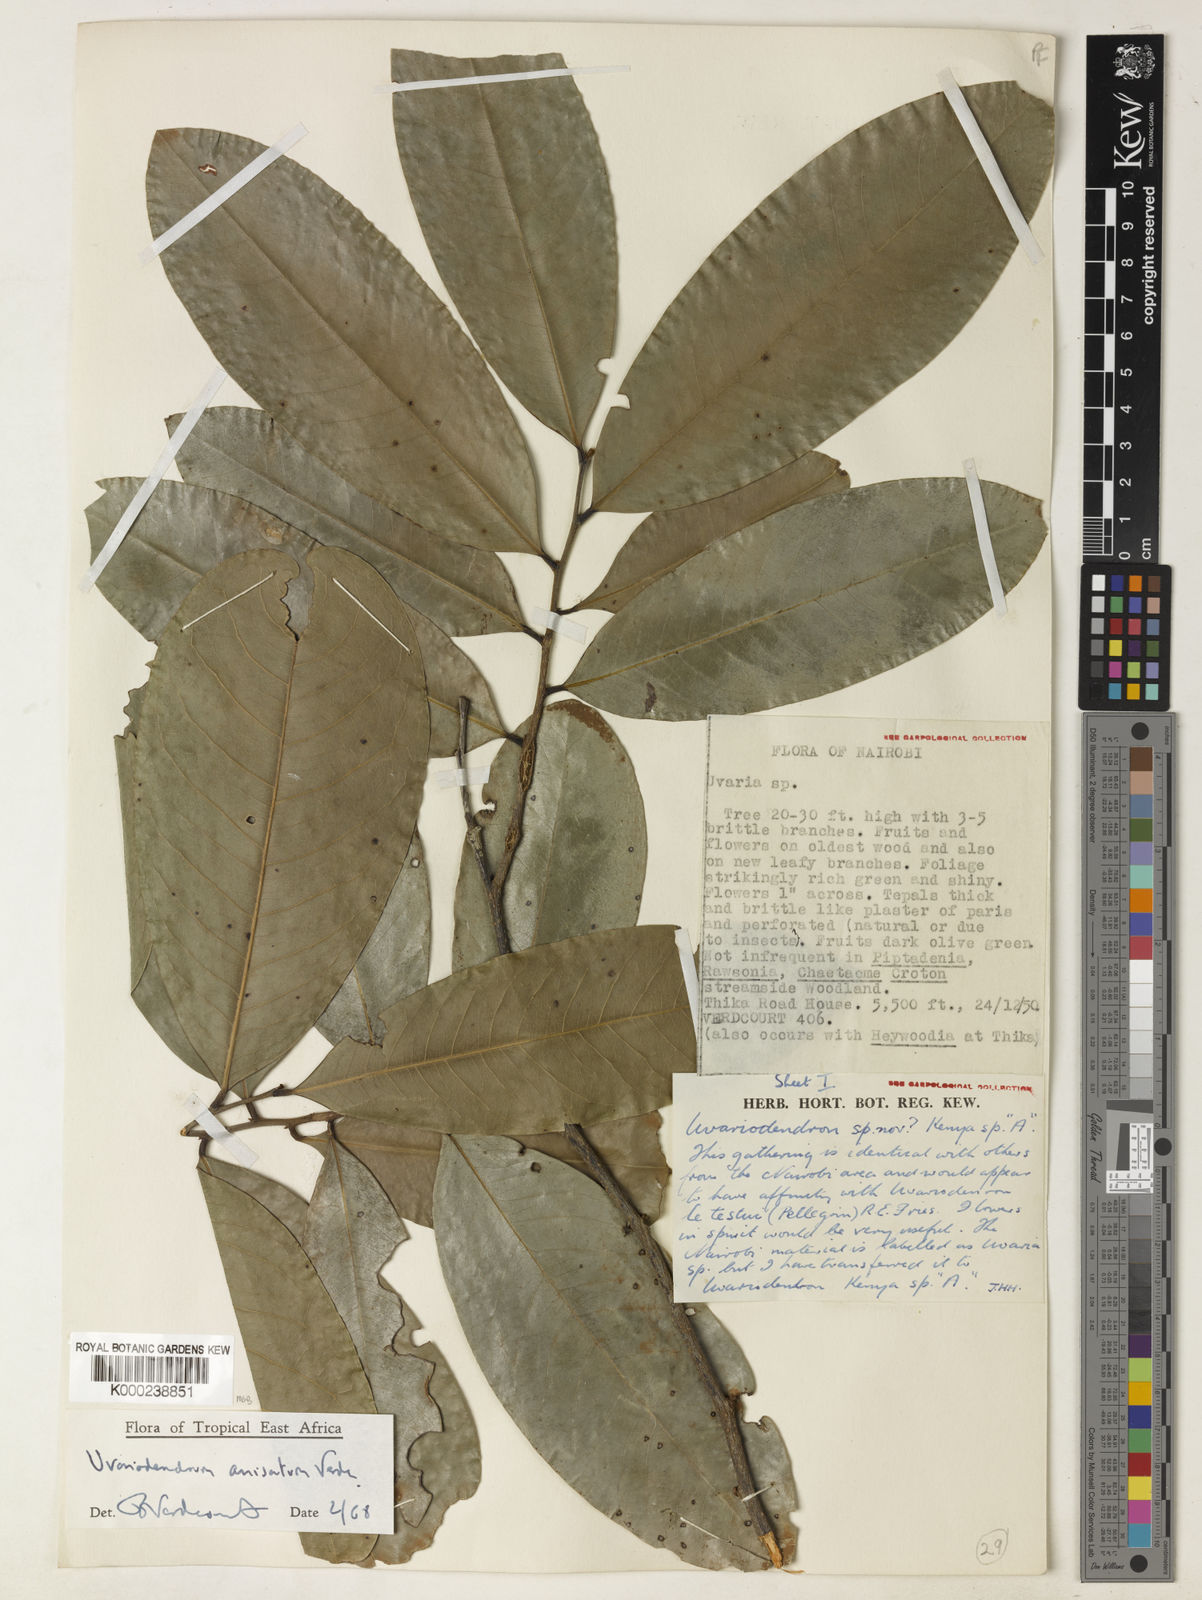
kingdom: Plantae
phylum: Tracheophyta
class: Magnoliopsida
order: Magnoliales
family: Annonaceae
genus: Uvariodendron
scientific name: Uvariodendron anisatum
